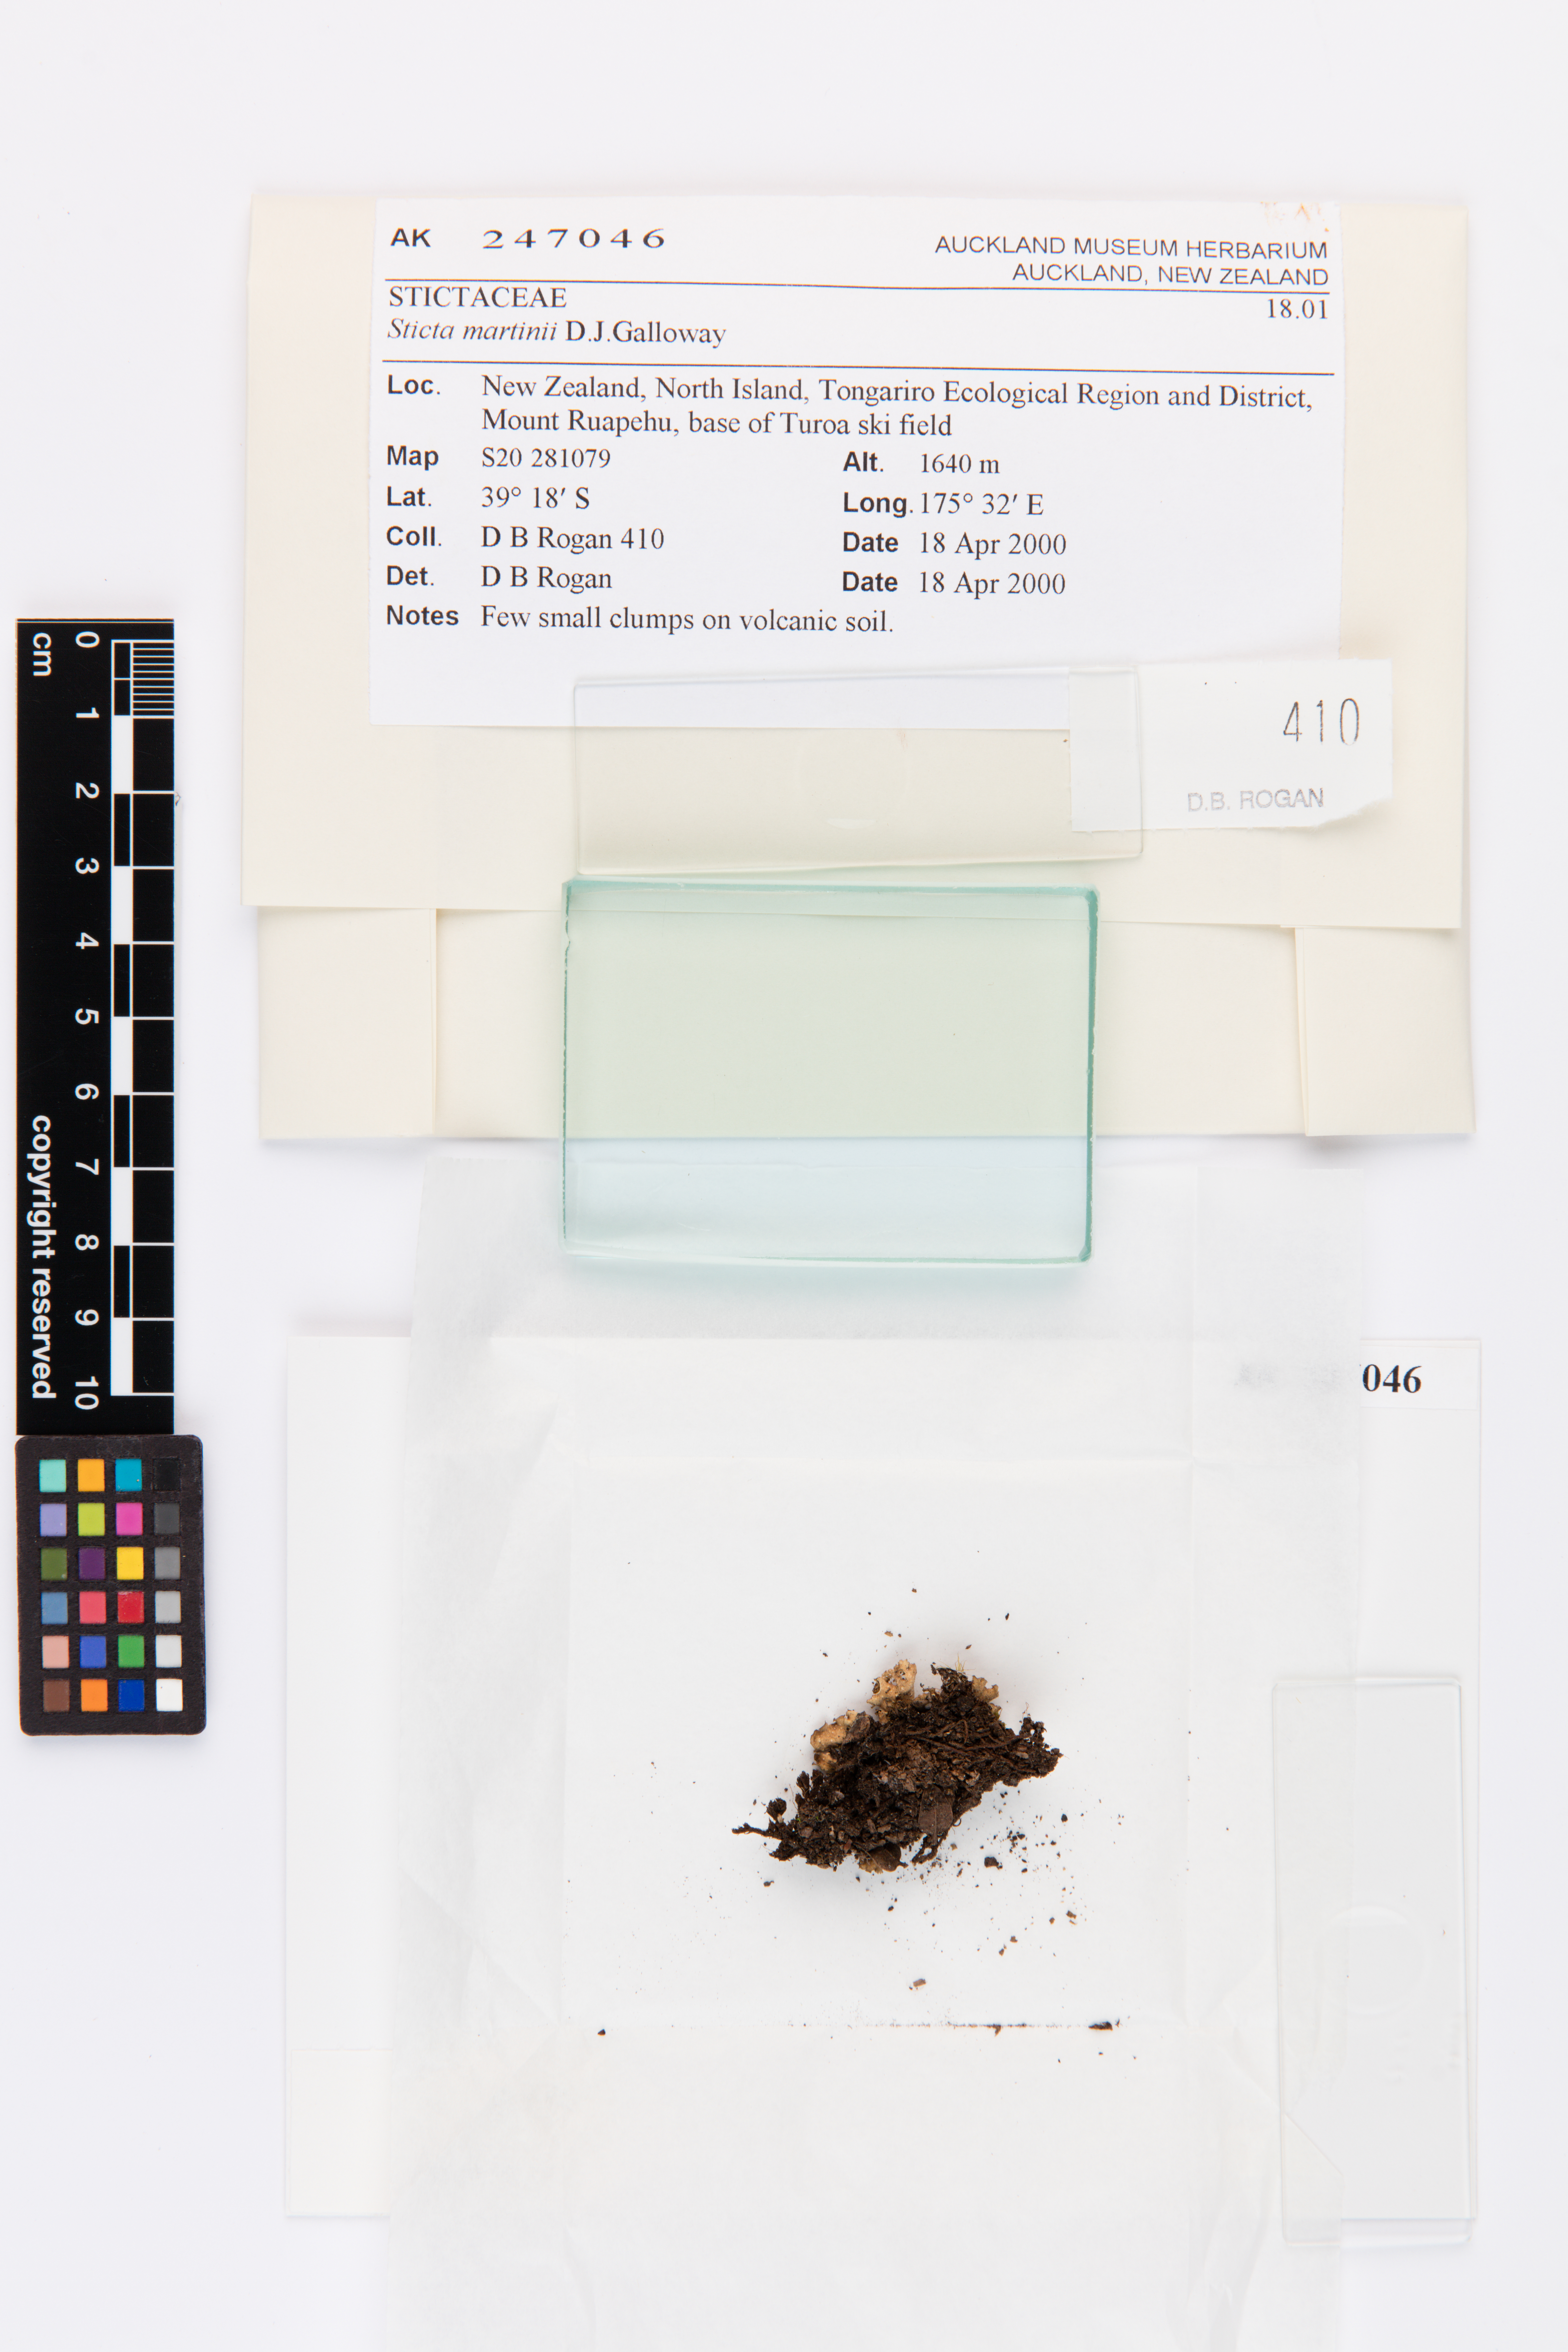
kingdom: Fungi
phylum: Ascomycota
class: Lecanoromycetes
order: Peltigerales
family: Lobariaceae
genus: Sticta
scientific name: Sticta martinii
